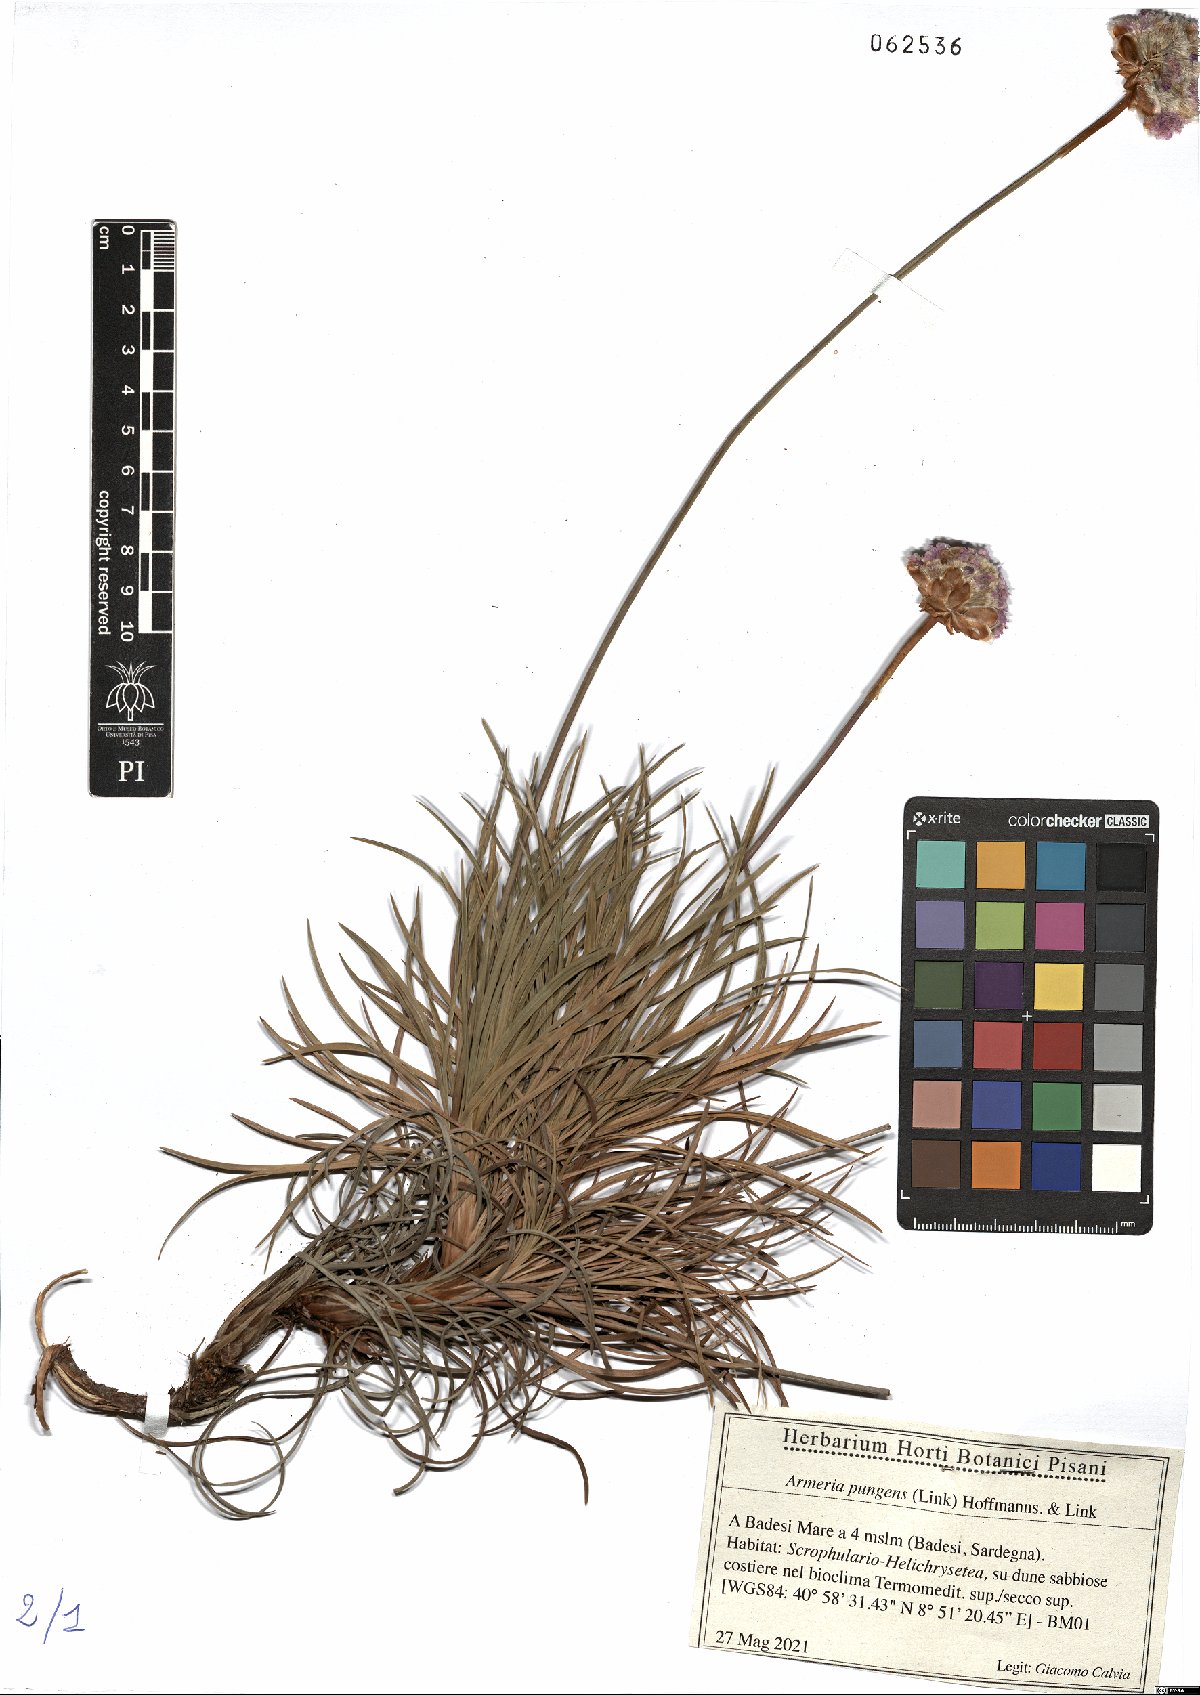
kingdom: Plantae
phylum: Tracheophyta
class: Magnoliopsida
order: Caryophyllales
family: Plumbaginaceae
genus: Armeria
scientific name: Armeria pungens
